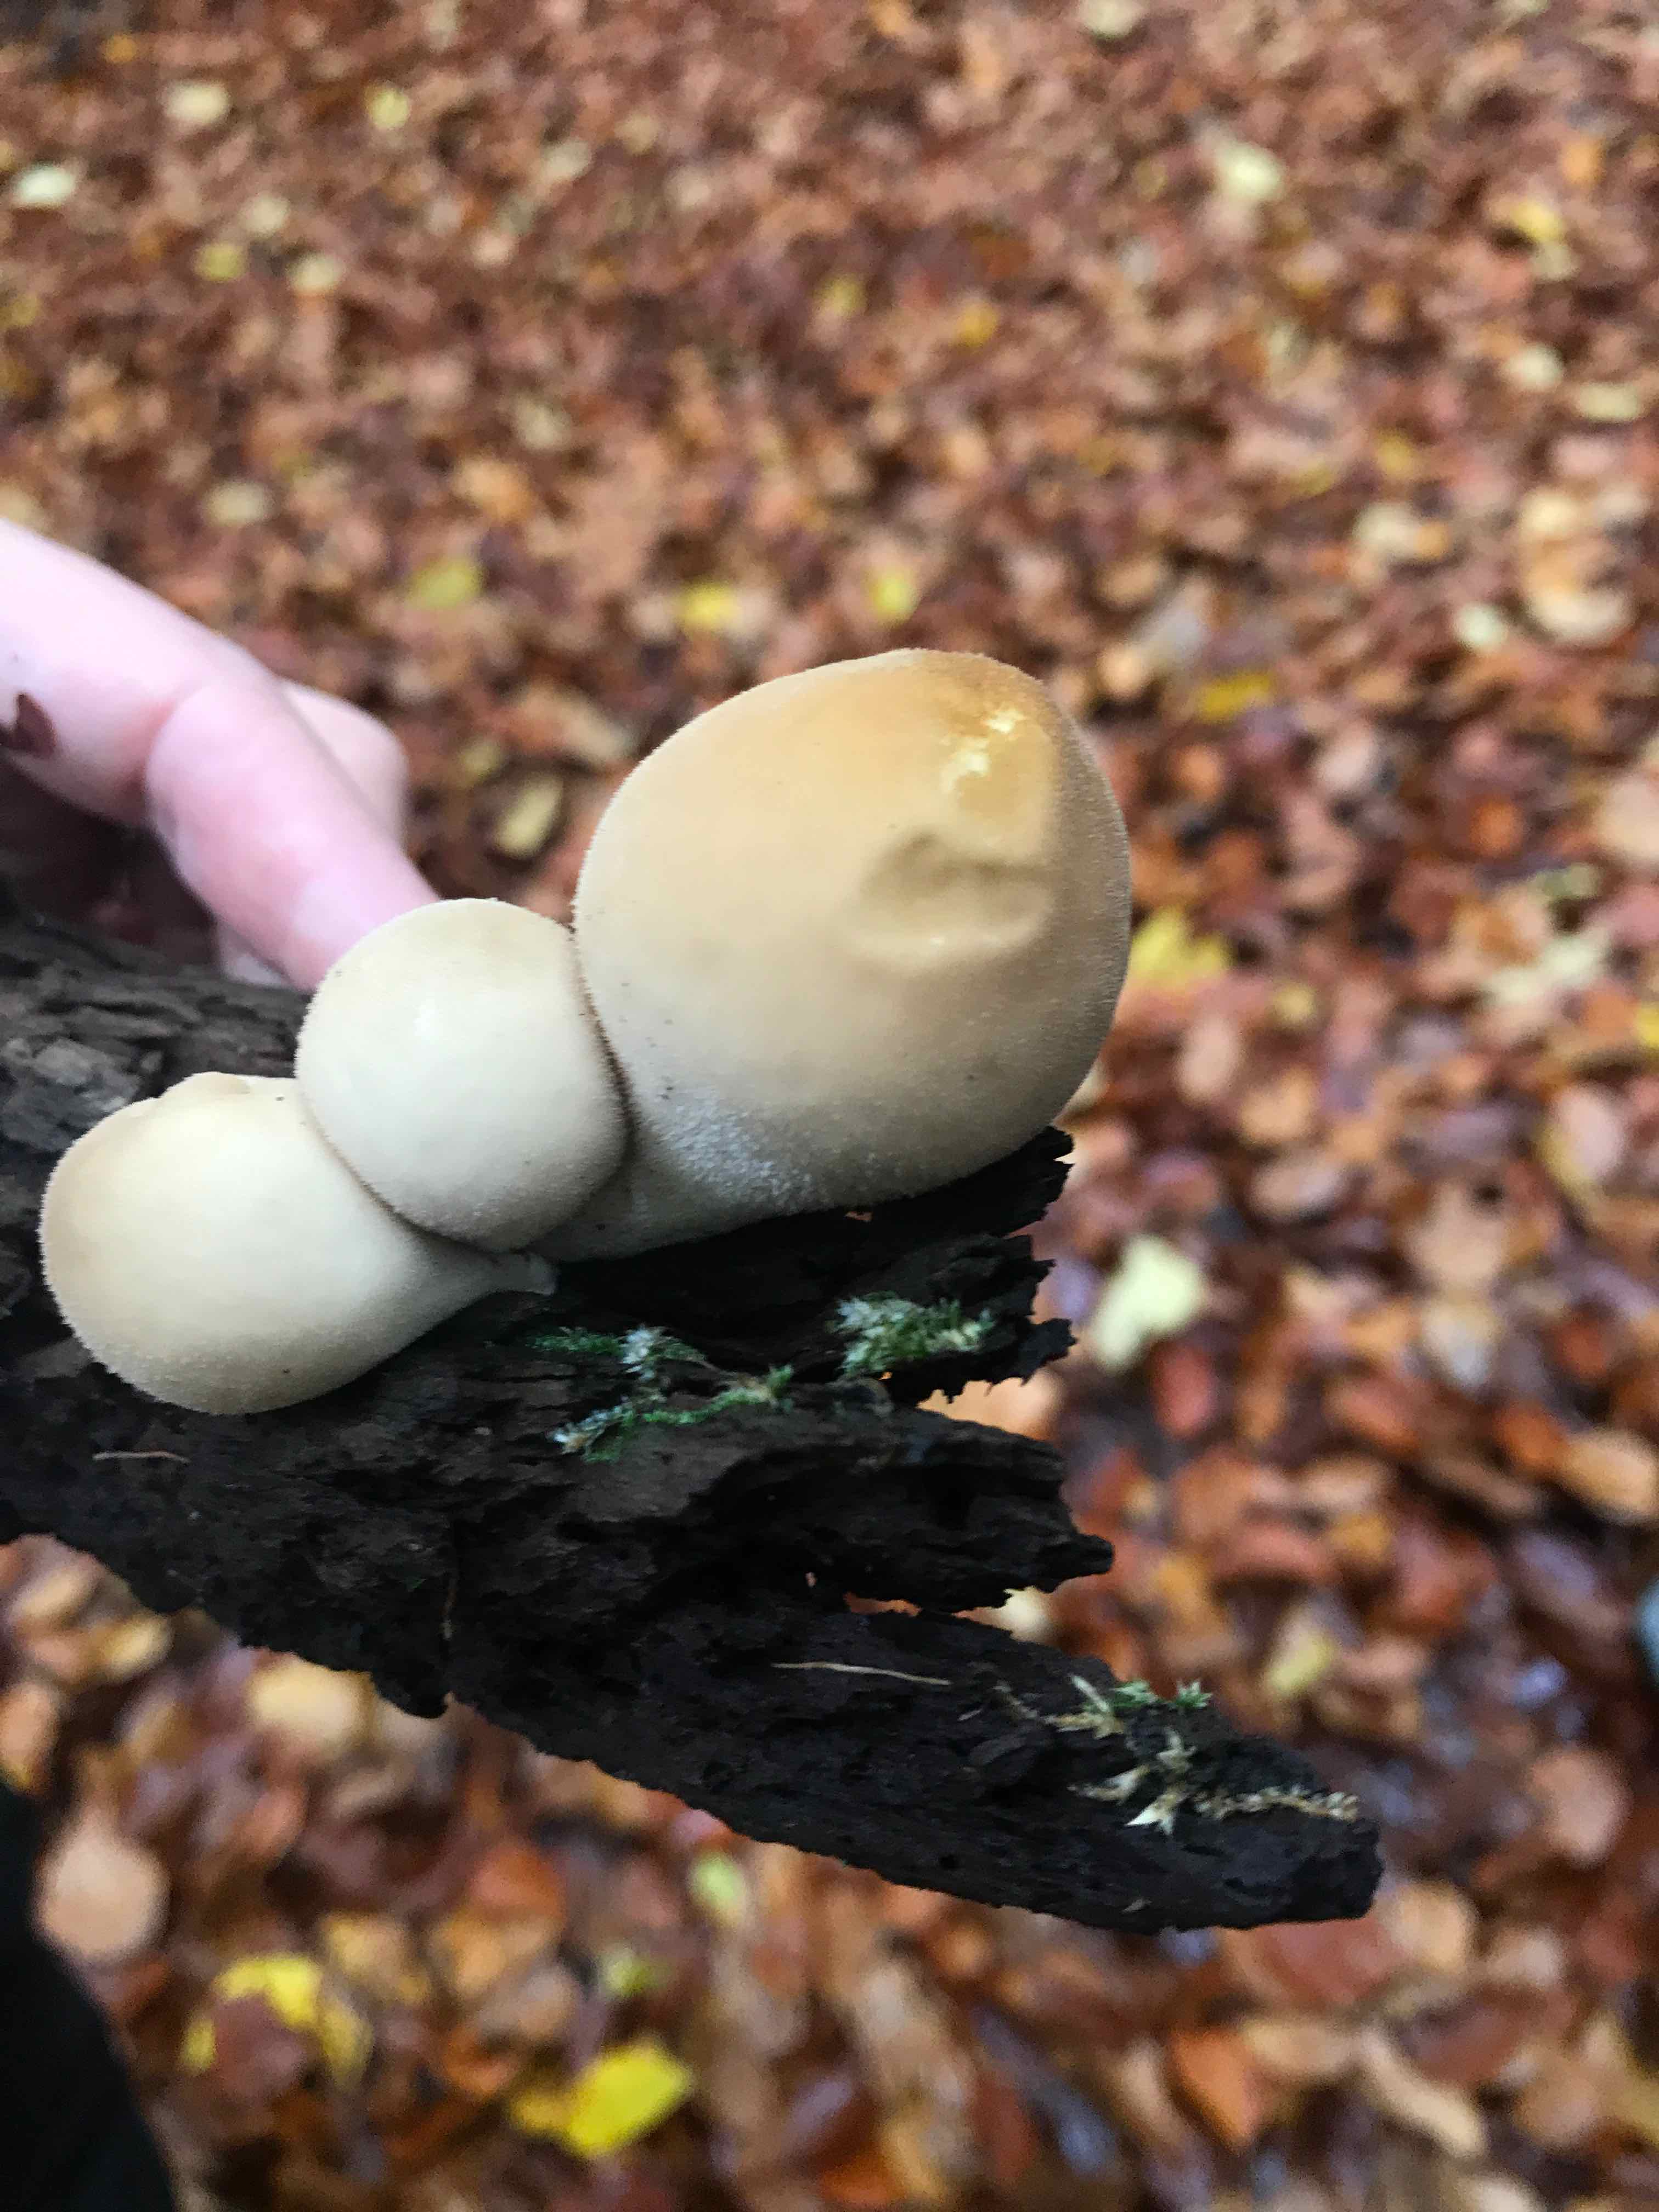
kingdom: Fungi
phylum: Basidiomycota
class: Agaricomycetes
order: Agaricales
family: Lycoperdaceae
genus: Apioperdon
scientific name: Apioperdon pyriforme
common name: pære-støvbold
